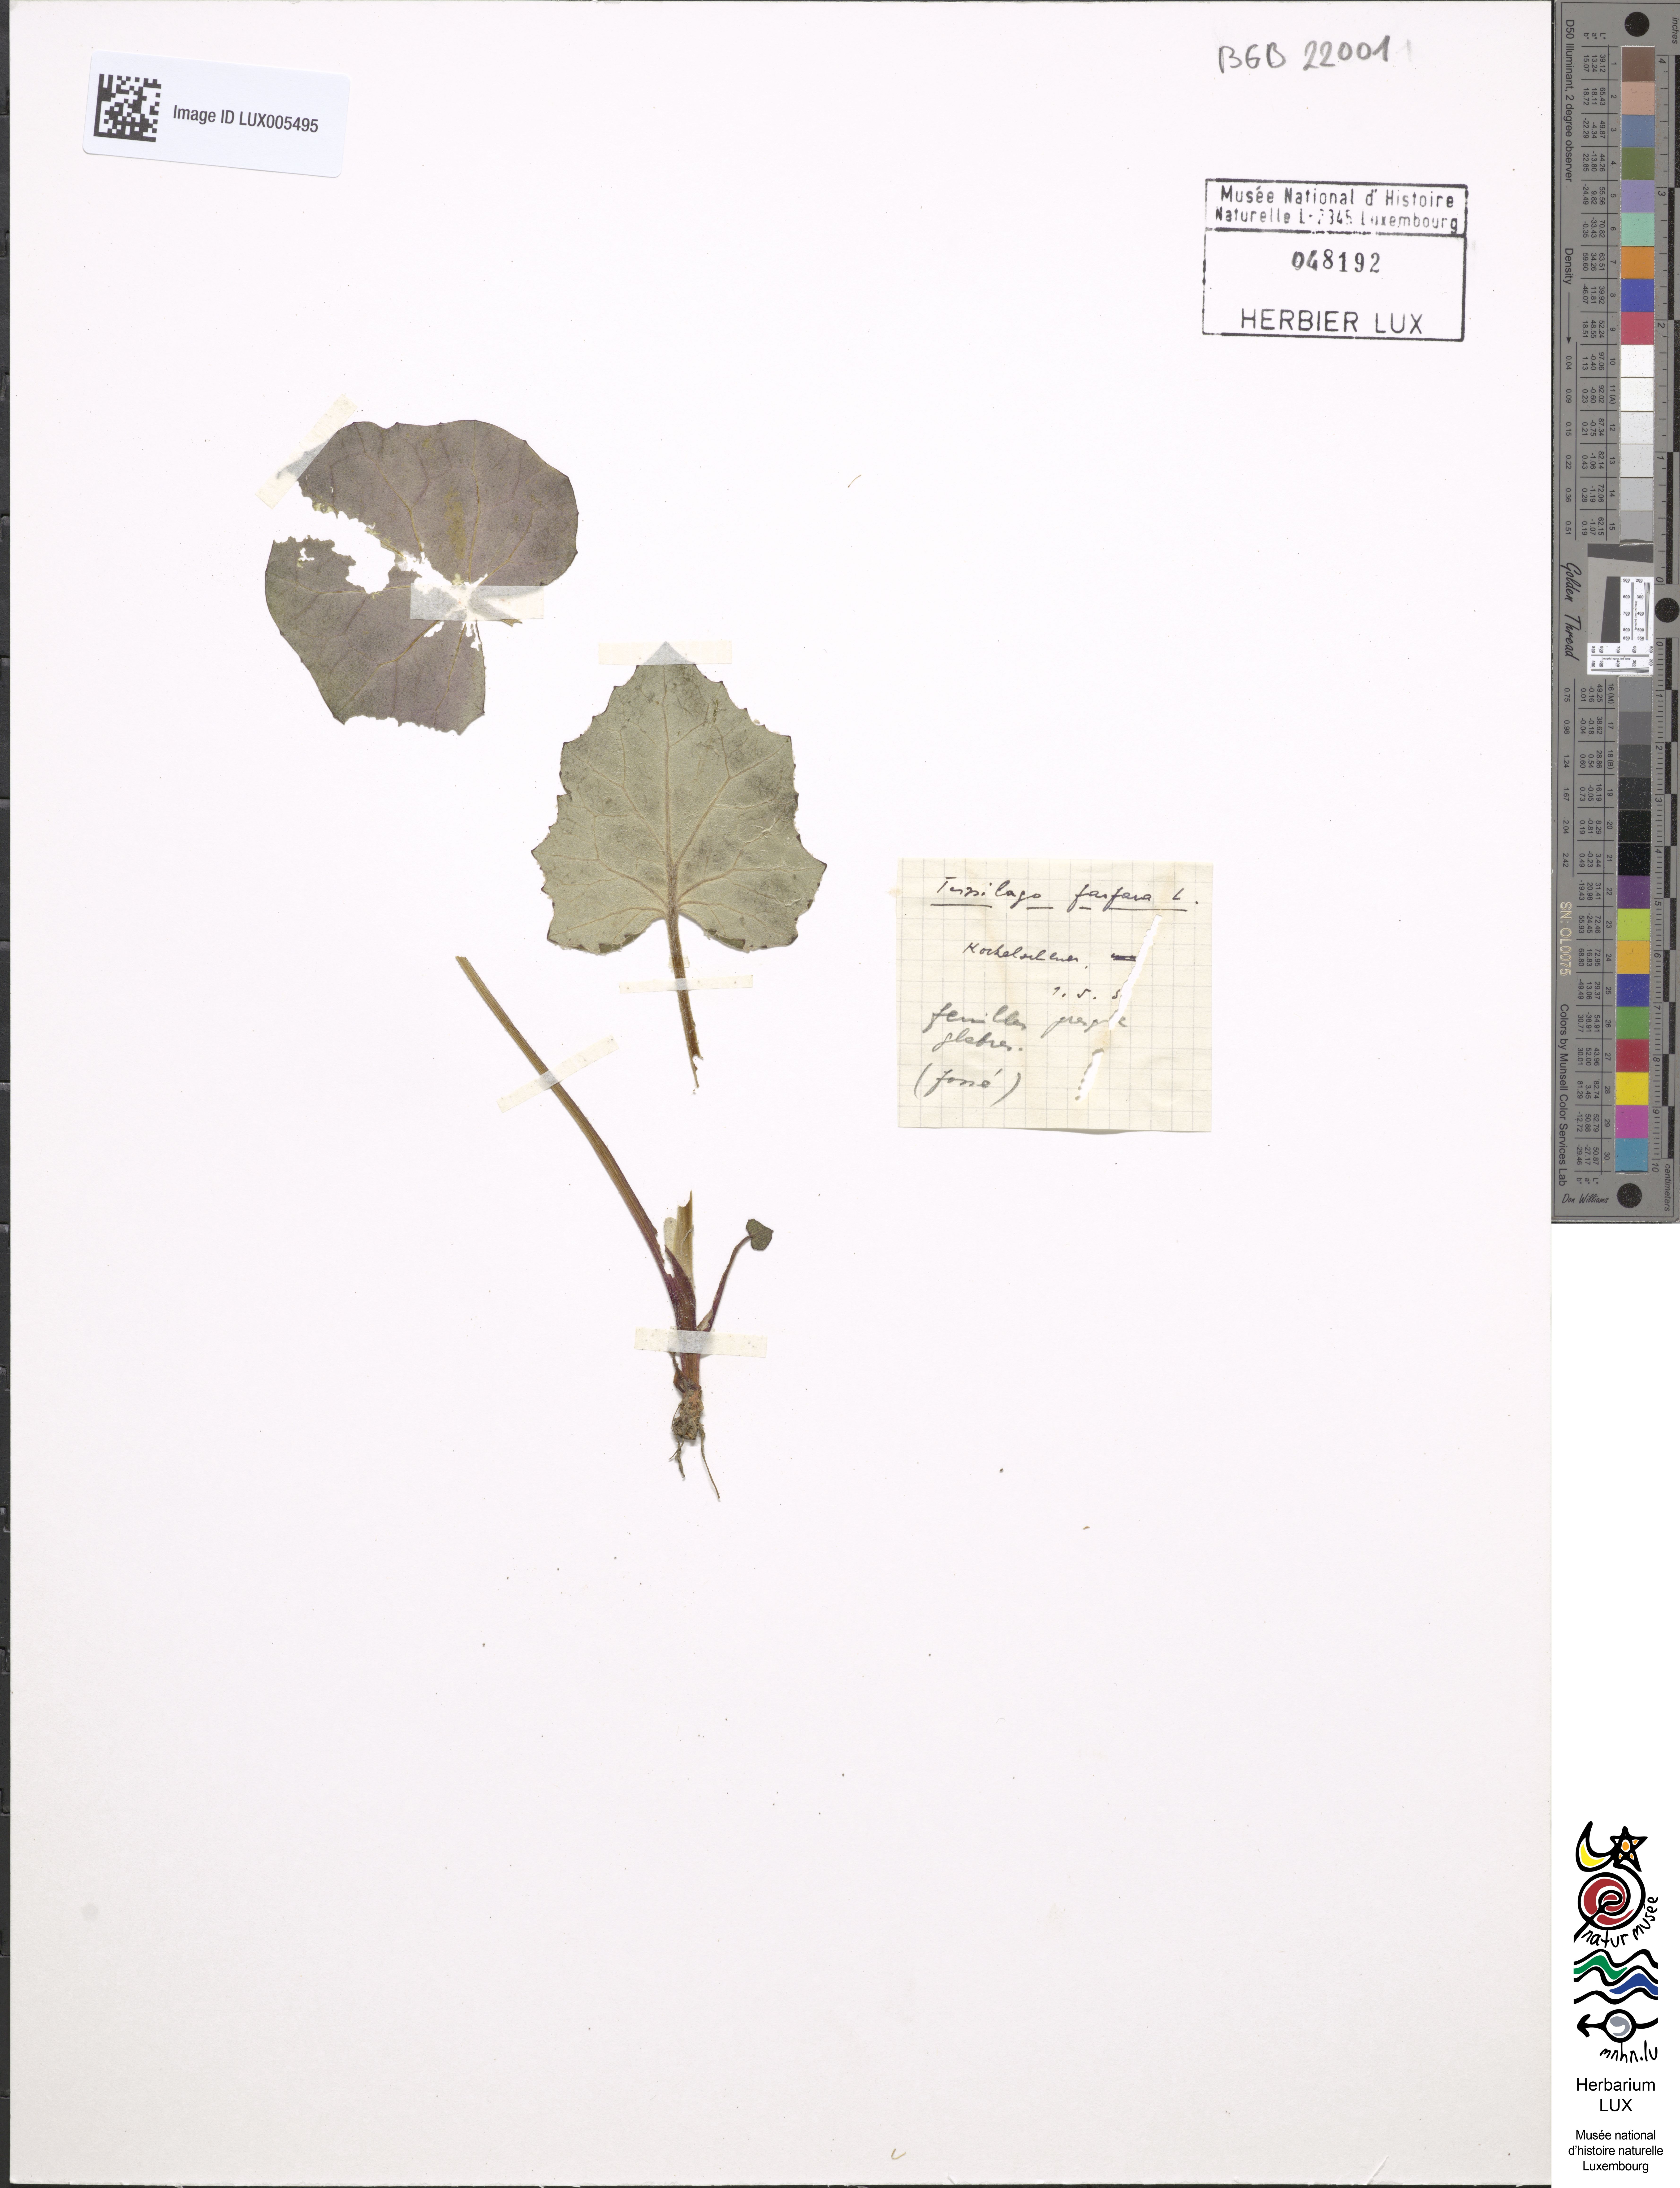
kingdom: Plantae
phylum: Tracheophyta
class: Magnoliopsida
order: Asterales
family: Asteraceae
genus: Tussilago
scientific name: Tussilago farfara
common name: Coltsfoot
